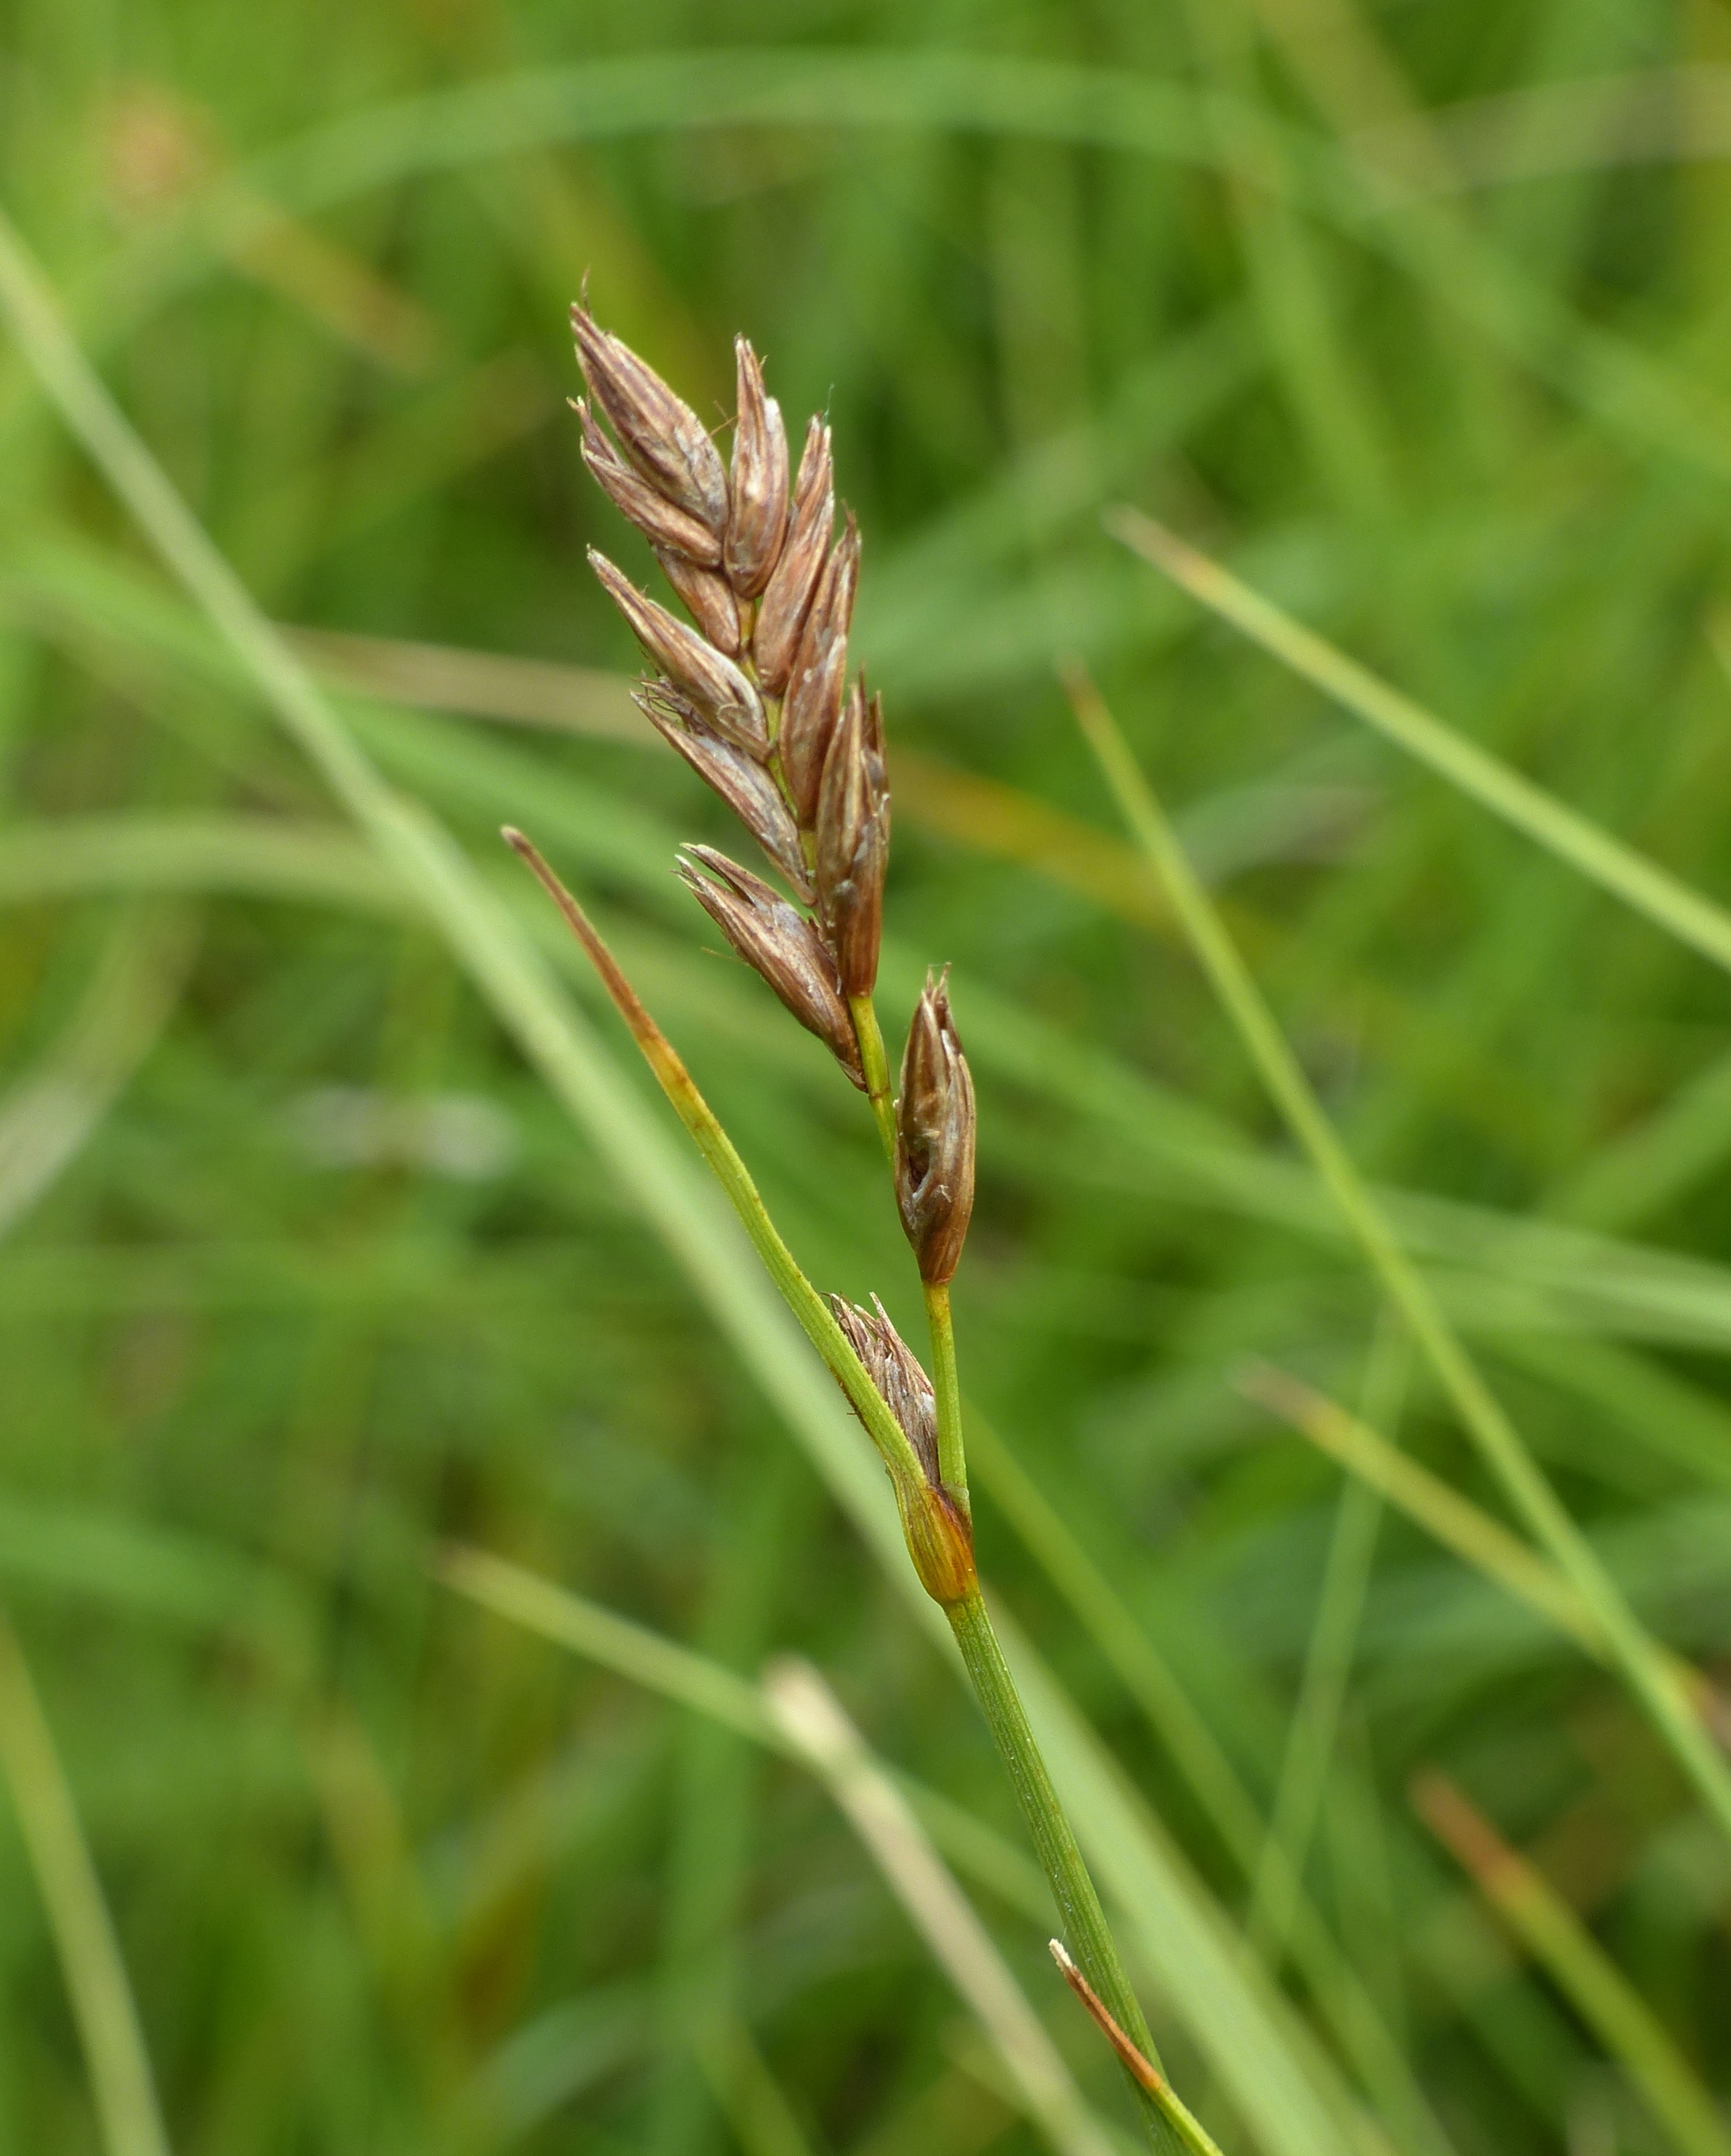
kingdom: Plantae
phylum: Tracheophyta
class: Liliopsida
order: Poales
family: Cyperaceae
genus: Blysmus
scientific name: Blysmus compressus
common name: Fladtrykt kogleaks
